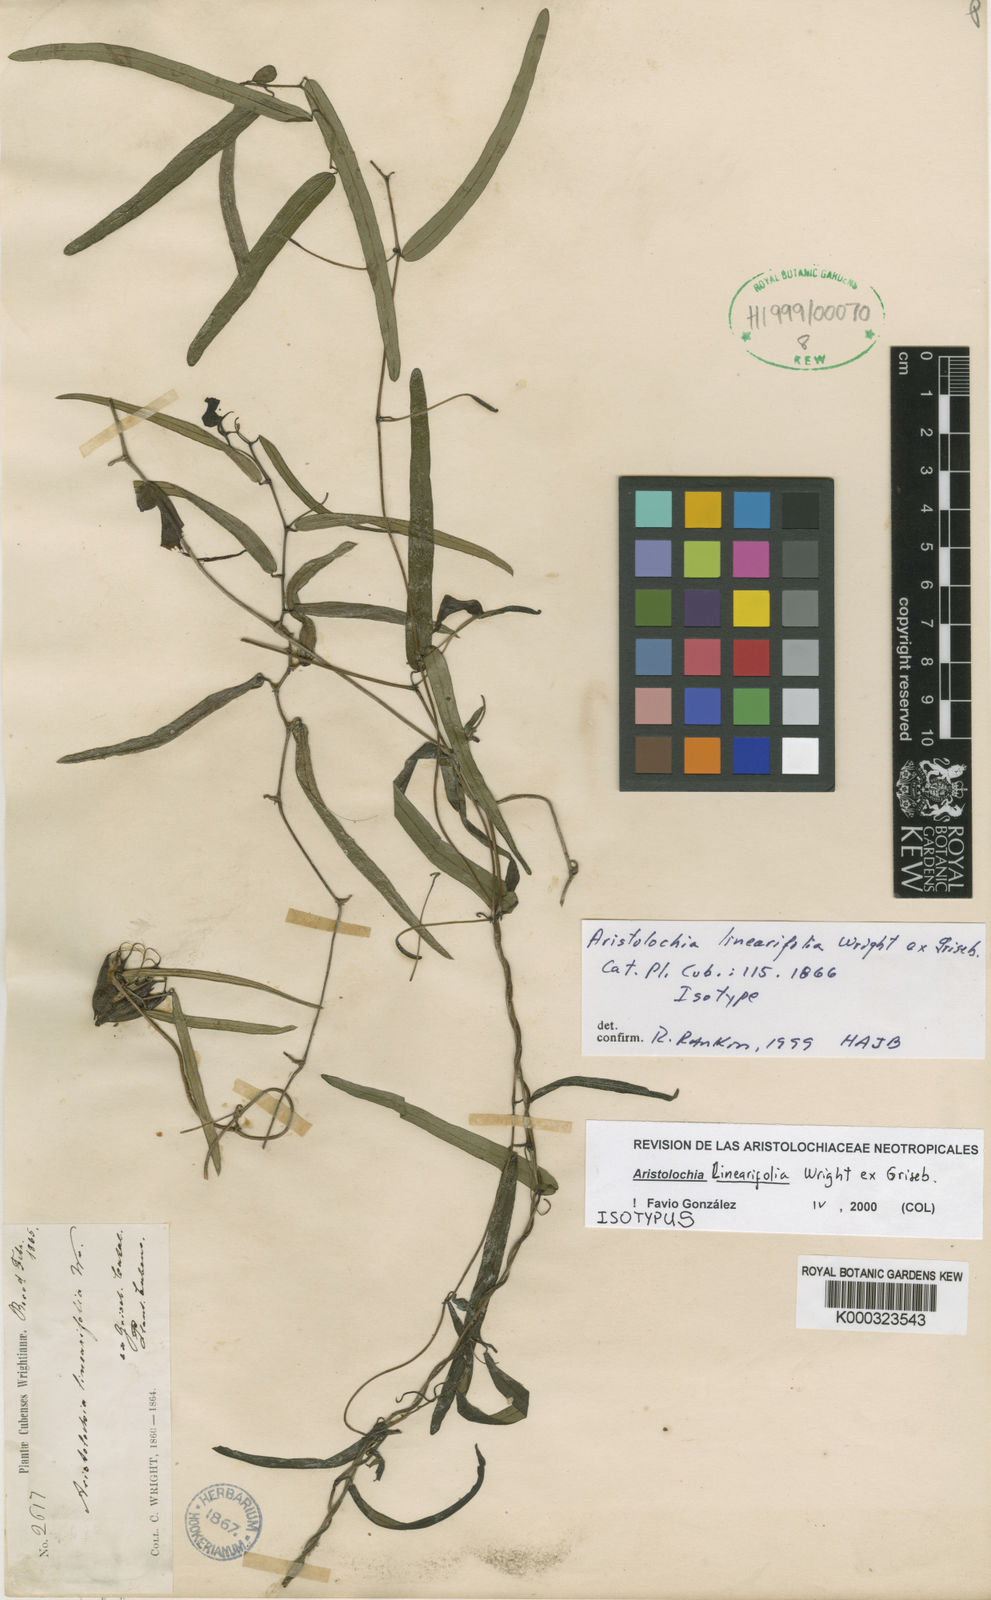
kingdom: Plantae
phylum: Tracheophyta
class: Magnoliopsida
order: Piperales
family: Aristolochiaceae
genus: Aristolochia
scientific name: Aristolochia linearifolia
